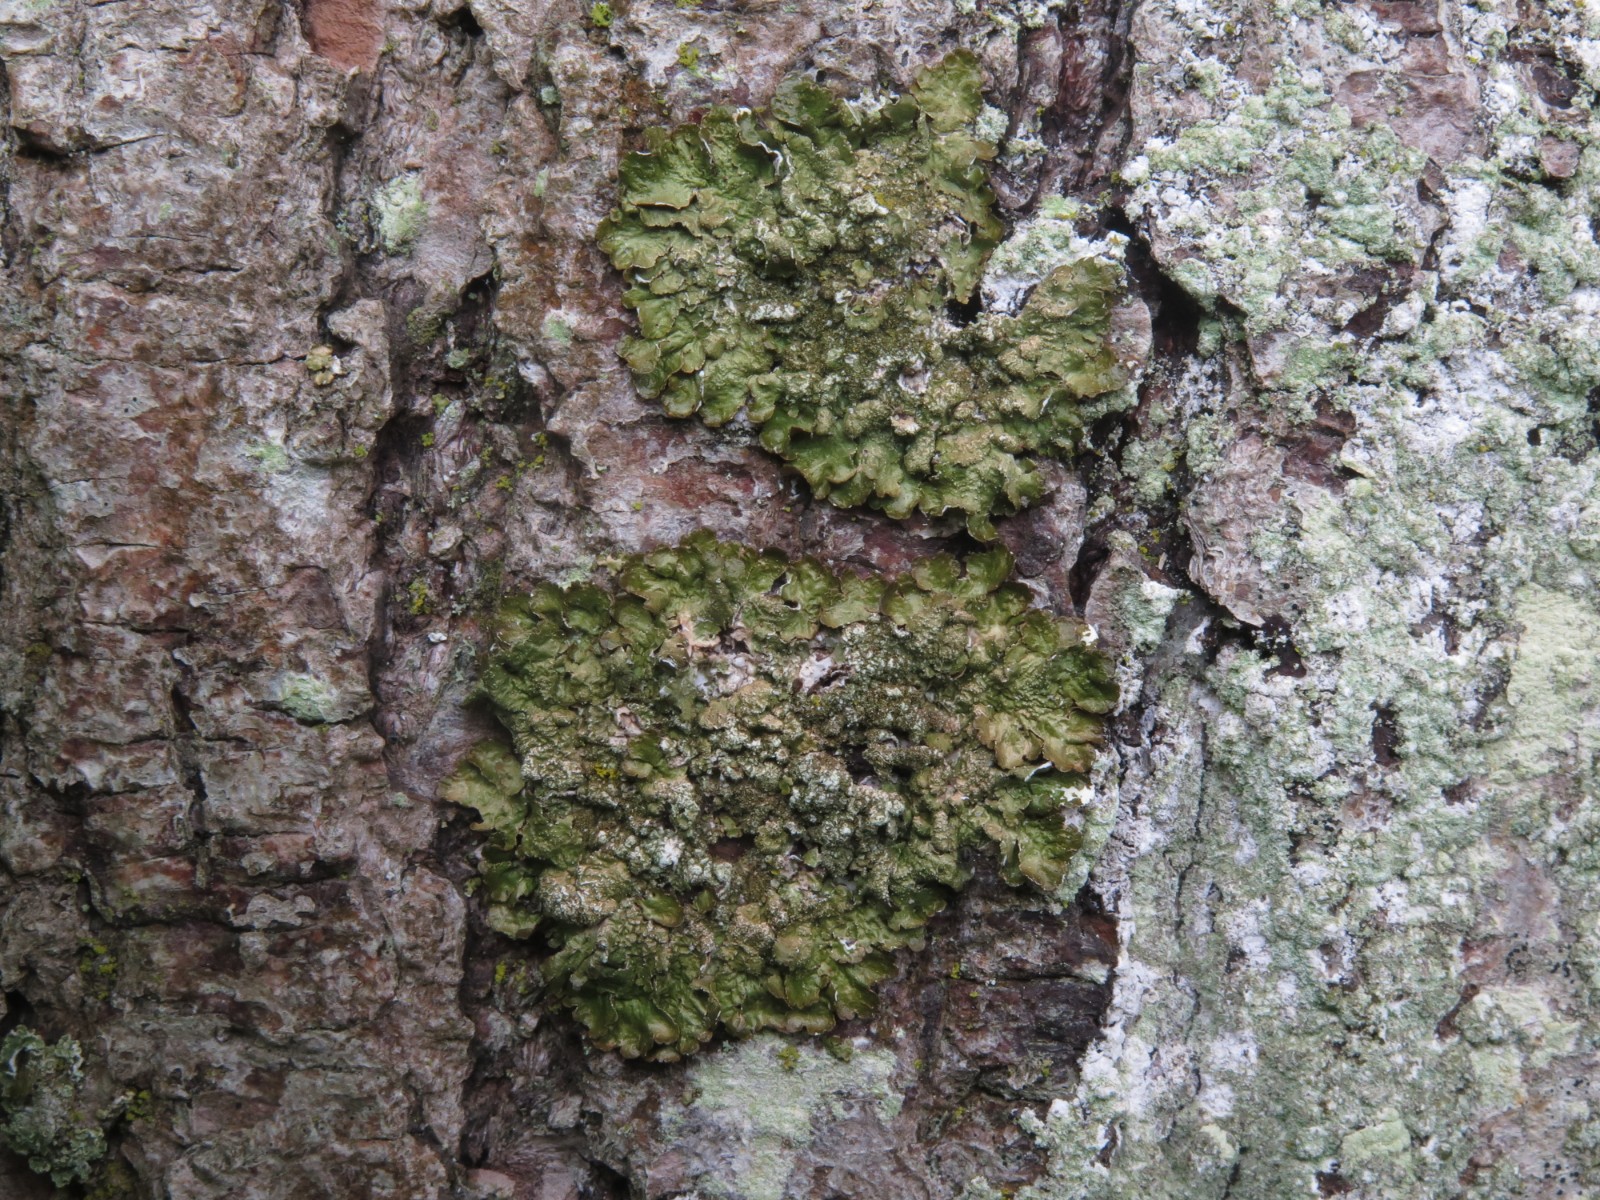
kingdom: Fungi
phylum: Ascomycota
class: Lecanoromycetes
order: Lecanorales
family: Parmeliaceae
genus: Melanelixia
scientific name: Melanelixia subaurifera
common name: guldpudret skållav
